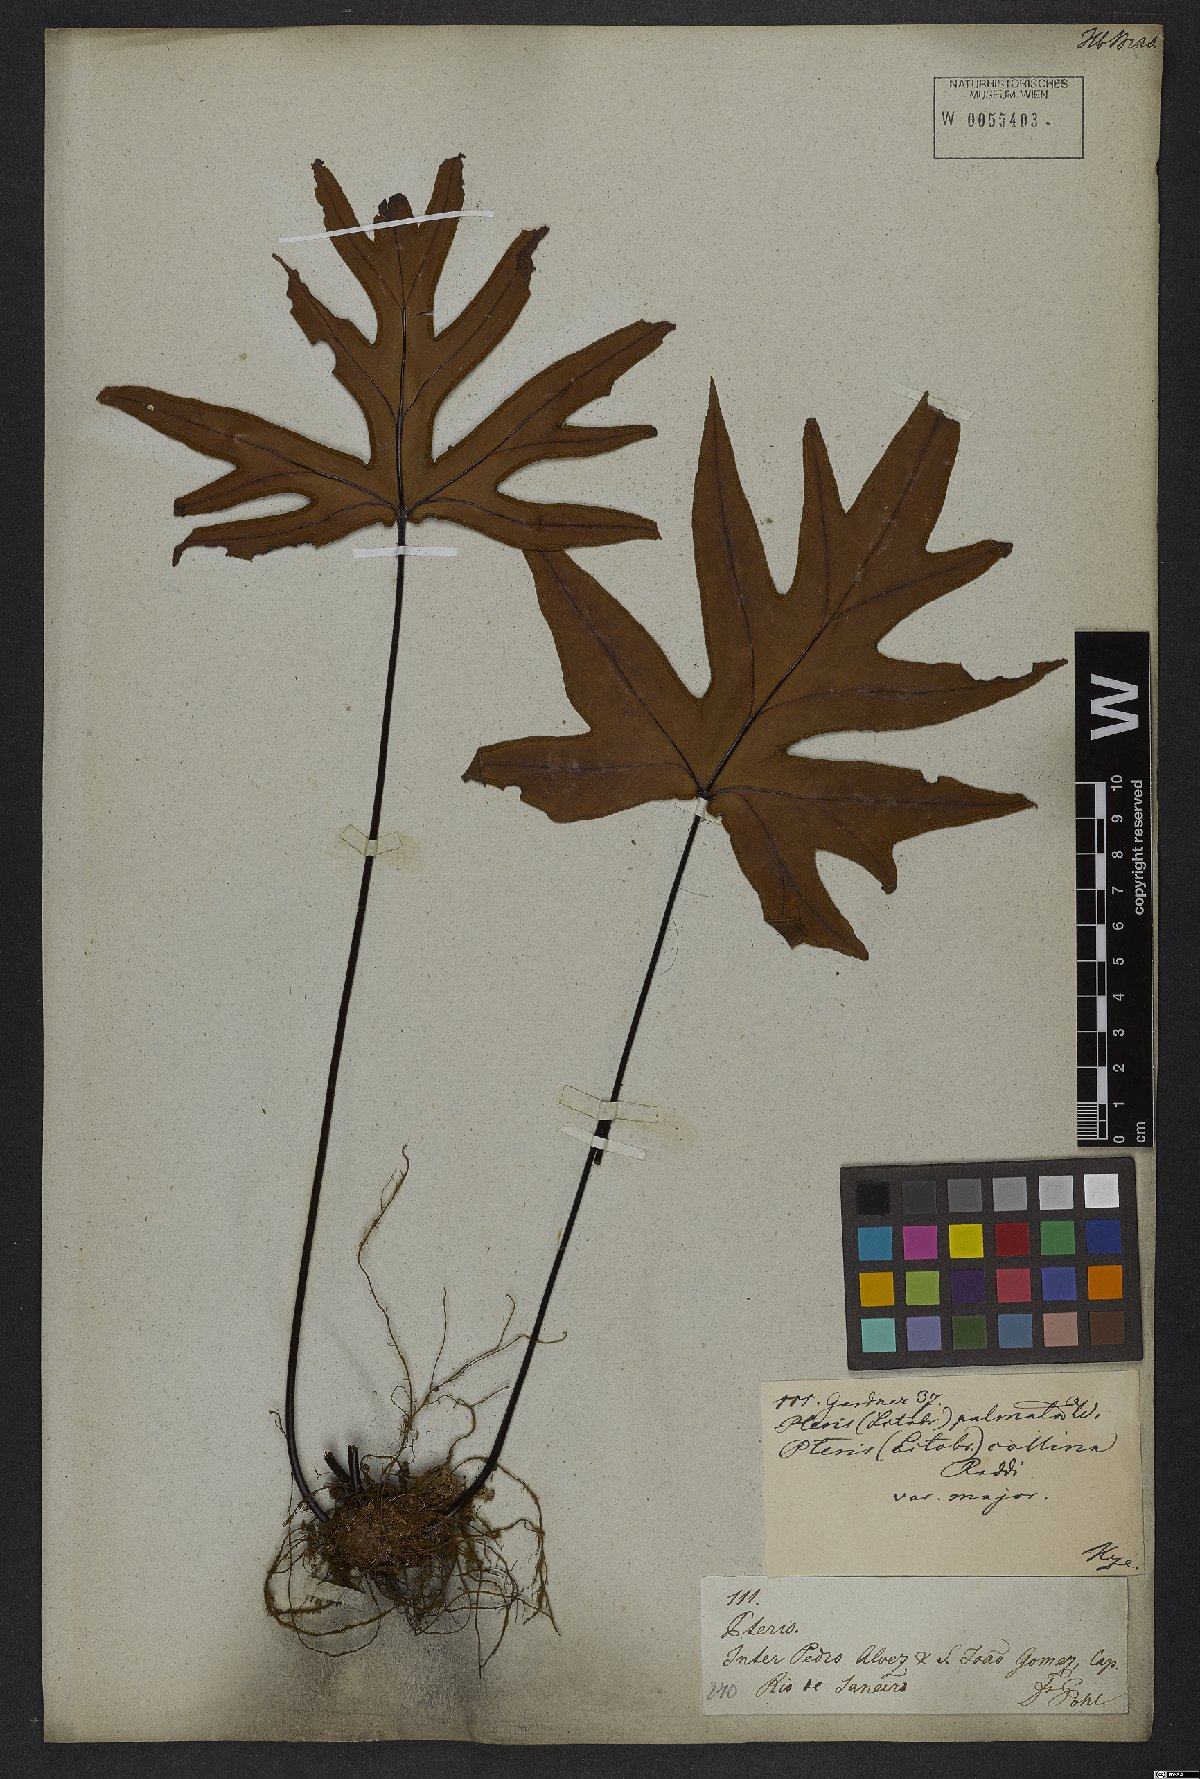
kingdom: Plantae
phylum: Tracheophyta
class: Polypodiopsida
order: Polypodiales
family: Pteridaceae
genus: Doryopteris
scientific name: Doryopteris pedata
